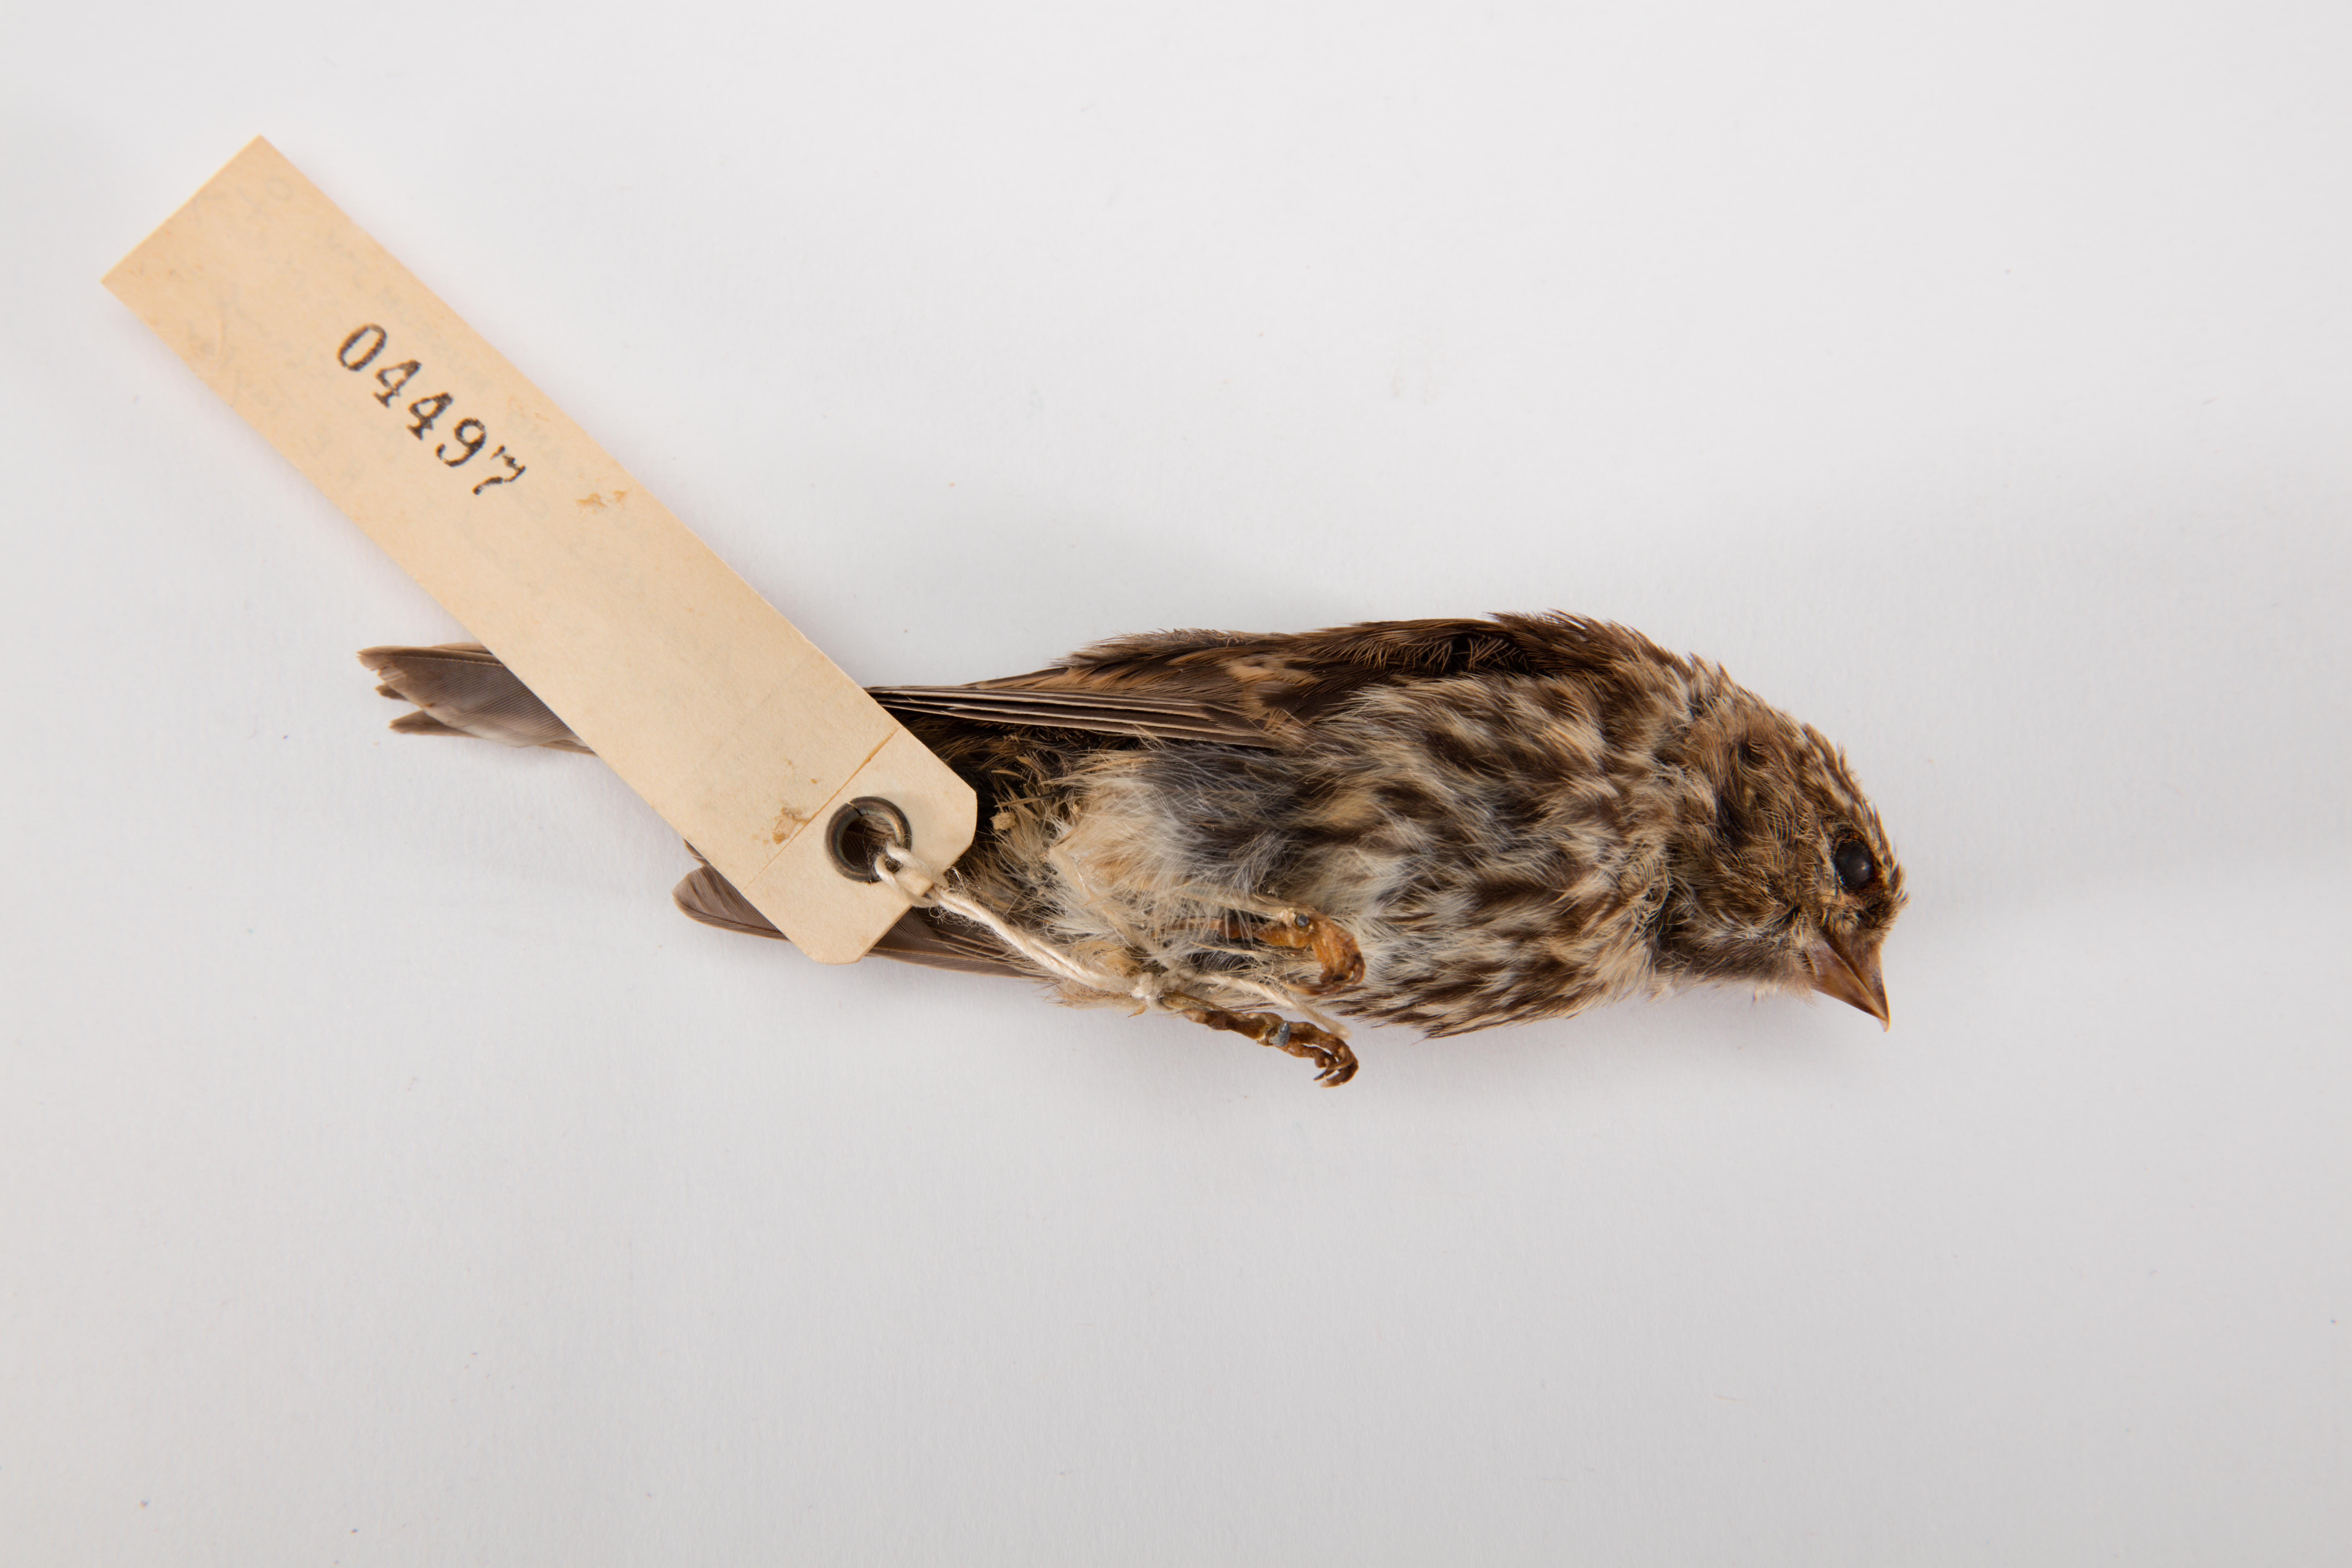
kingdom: Animalia
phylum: Chordata
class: Aves
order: Passeriformes
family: Fringillidae
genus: Acanthis
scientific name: Acanthis flammea
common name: Common redpoll
